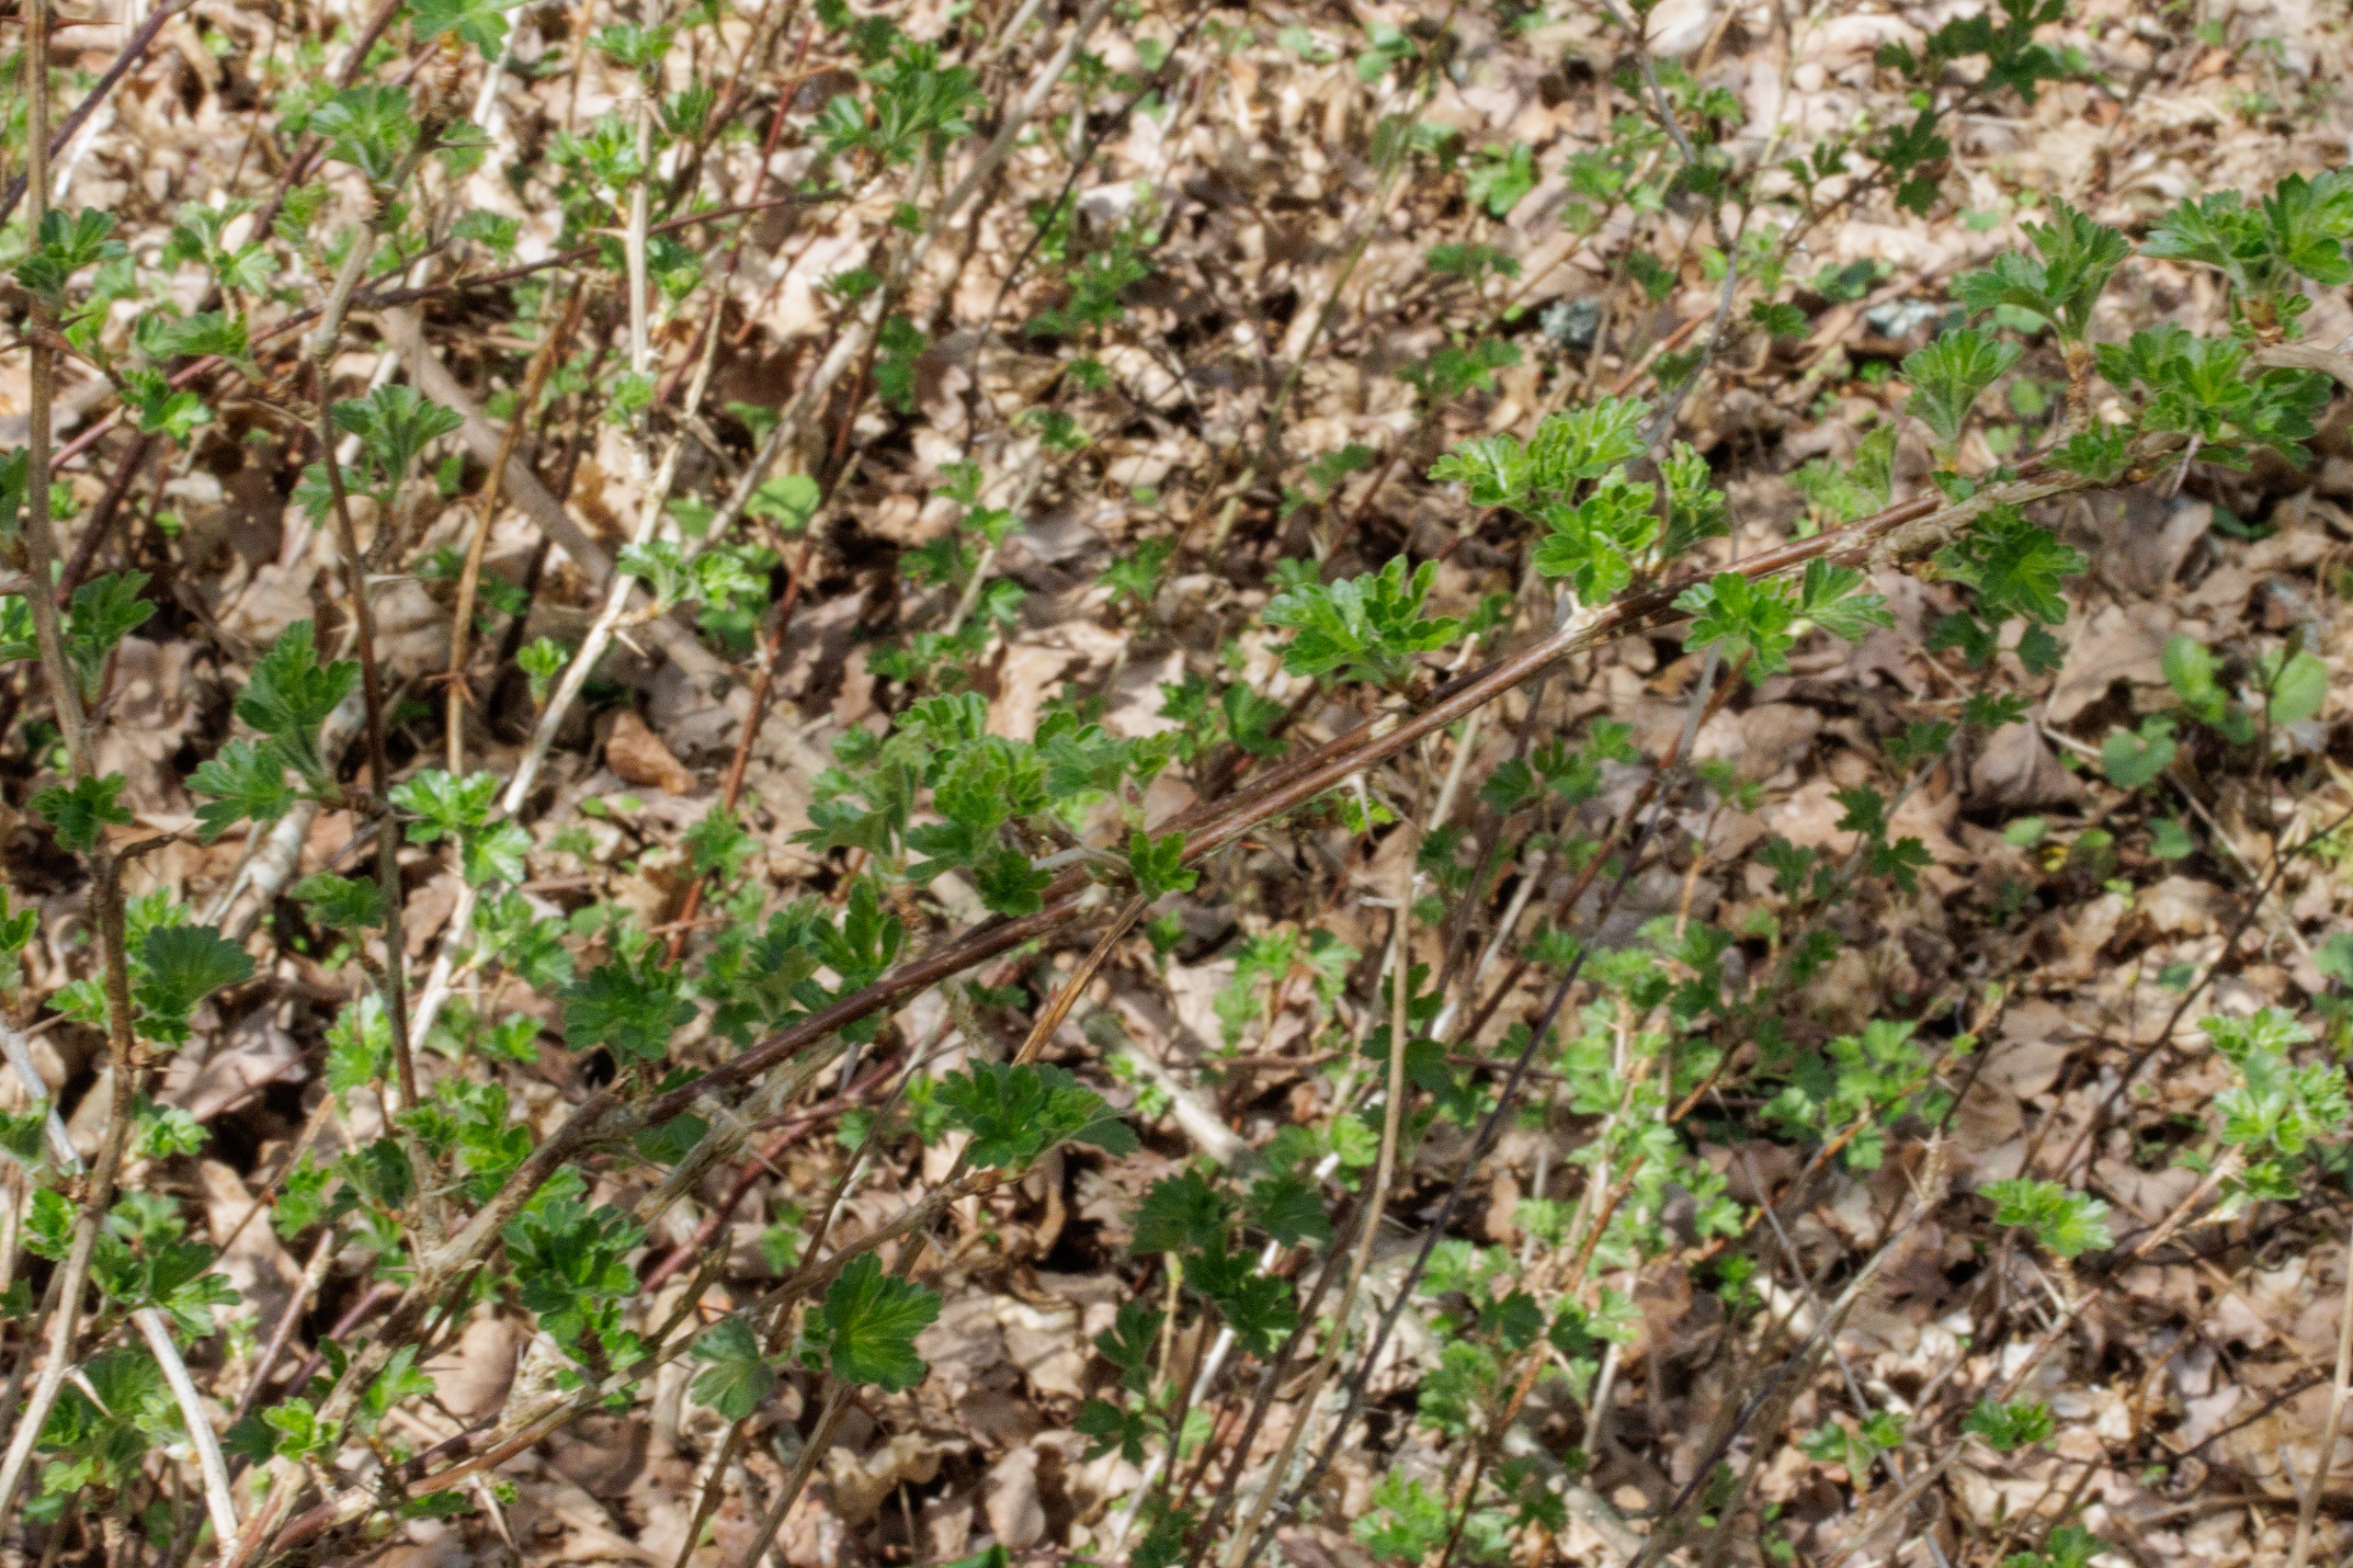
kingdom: Plantae
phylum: Tracheophyta
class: Magnoliopsida
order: Saxifragales
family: Grossulariaceae
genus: Ribes
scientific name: Ribes uva-crispa
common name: Stikkelsbær
